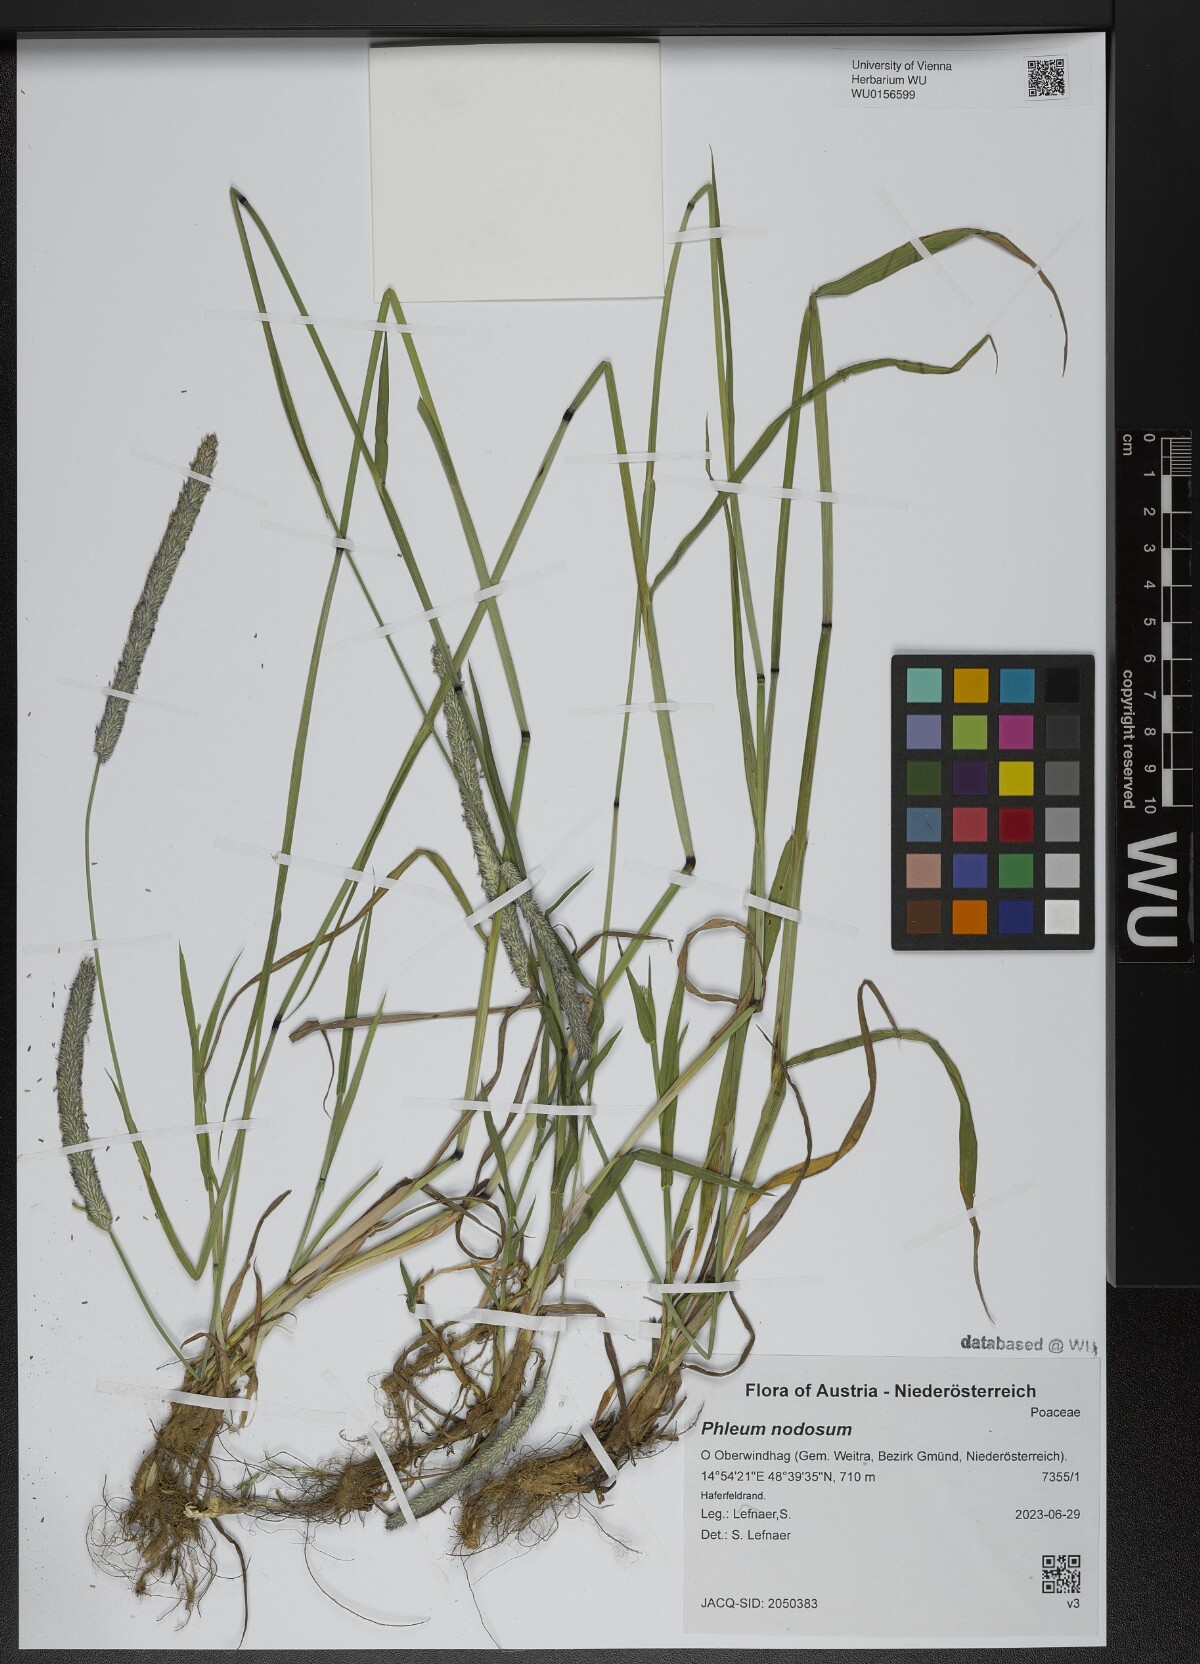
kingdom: Plantae
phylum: Tracheophyta
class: Liliopsida
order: Poales
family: Poaceae
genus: Phleum
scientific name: Phleum pratense
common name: Timothy grass
